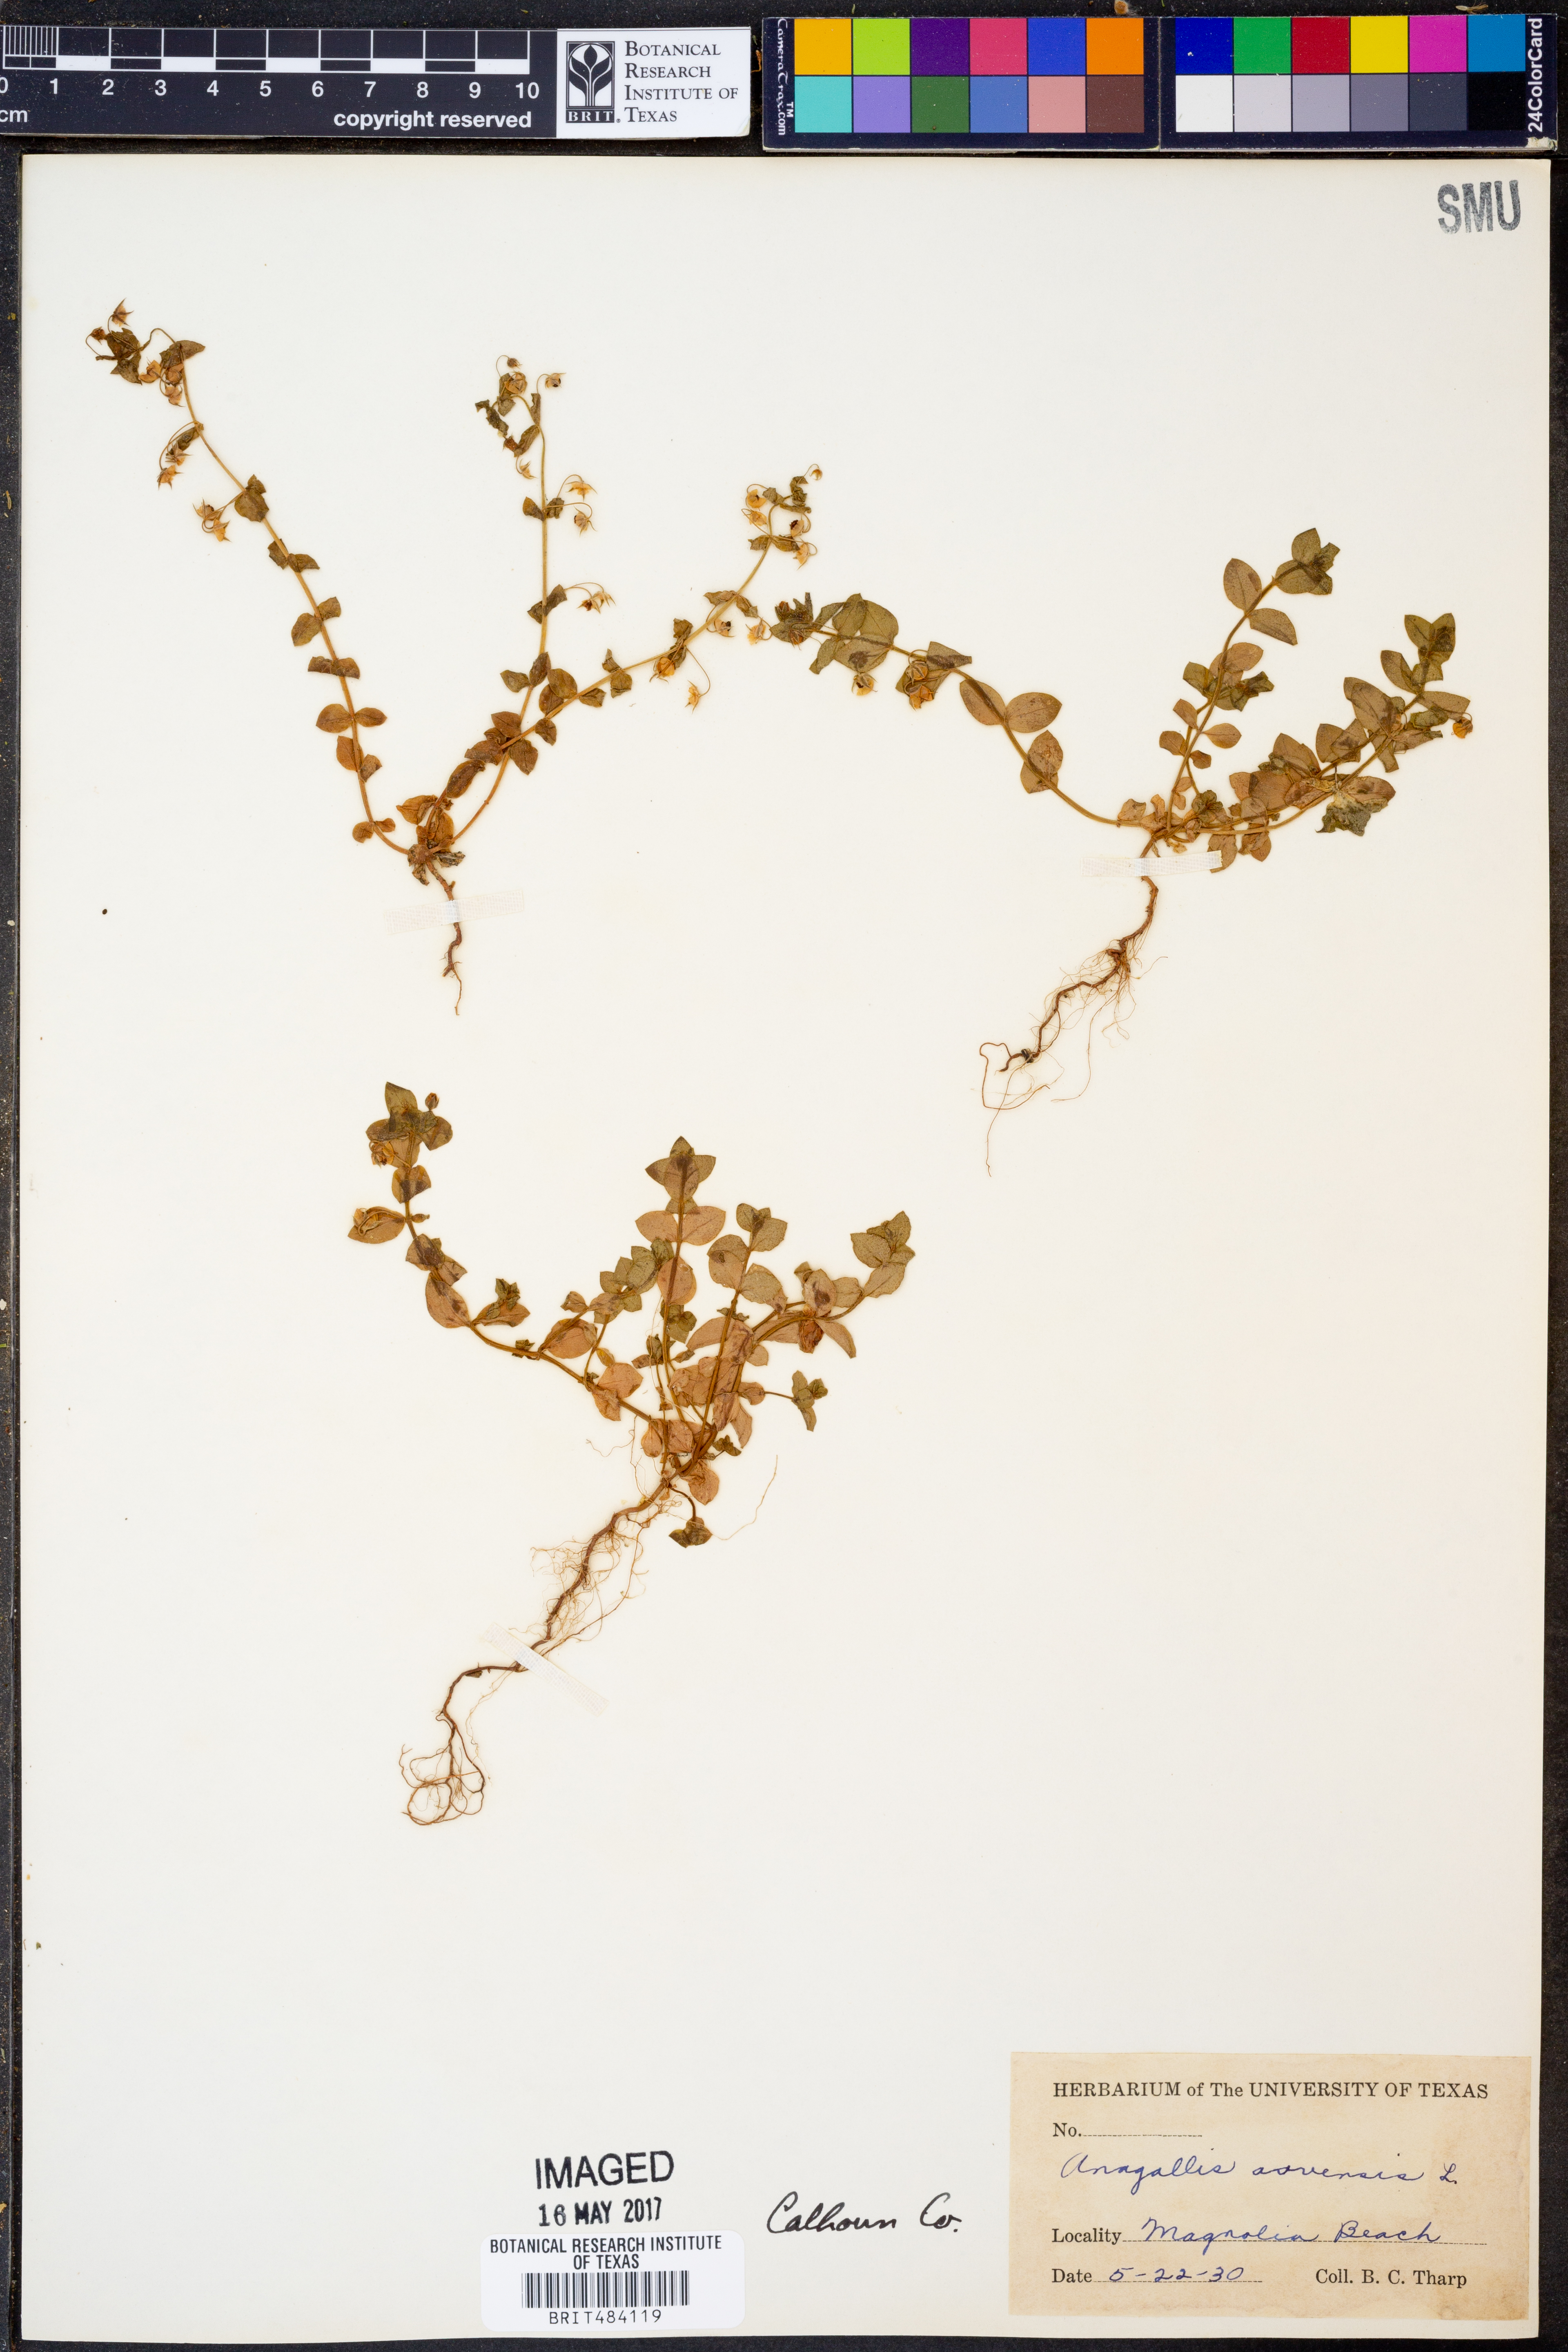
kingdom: Plantae
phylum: Tracheophyta
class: Magnoliopsida
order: Ericales
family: Primulaceae
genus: Lysimachia
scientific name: Lysimachia arvensis
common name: Scarlet pimpernel
